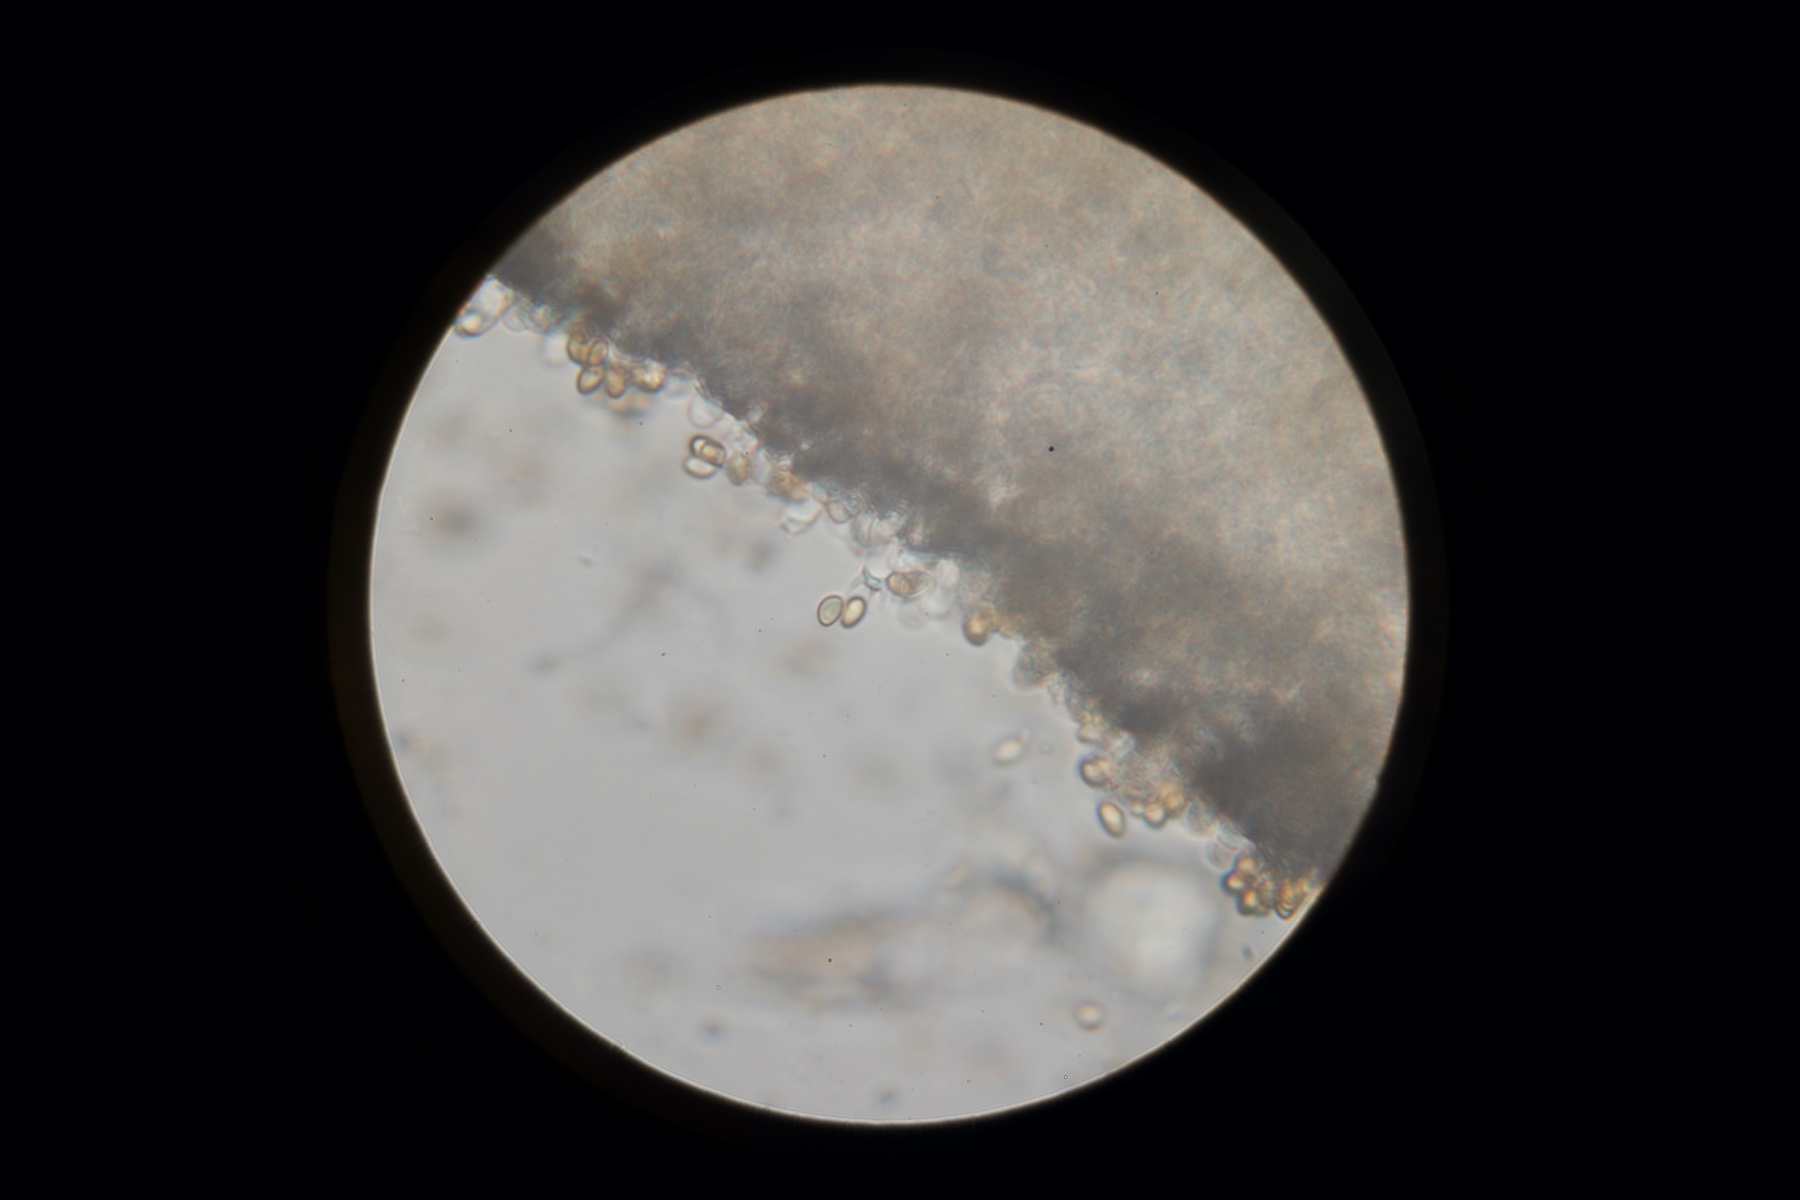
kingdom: Fungi
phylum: Basidiomycota
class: Agaricomycetes
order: Agaricales
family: Cortinariaceae
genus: Thaxterogaster
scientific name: Thaxterogaster leucoluteolus
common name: isabella slørhat
